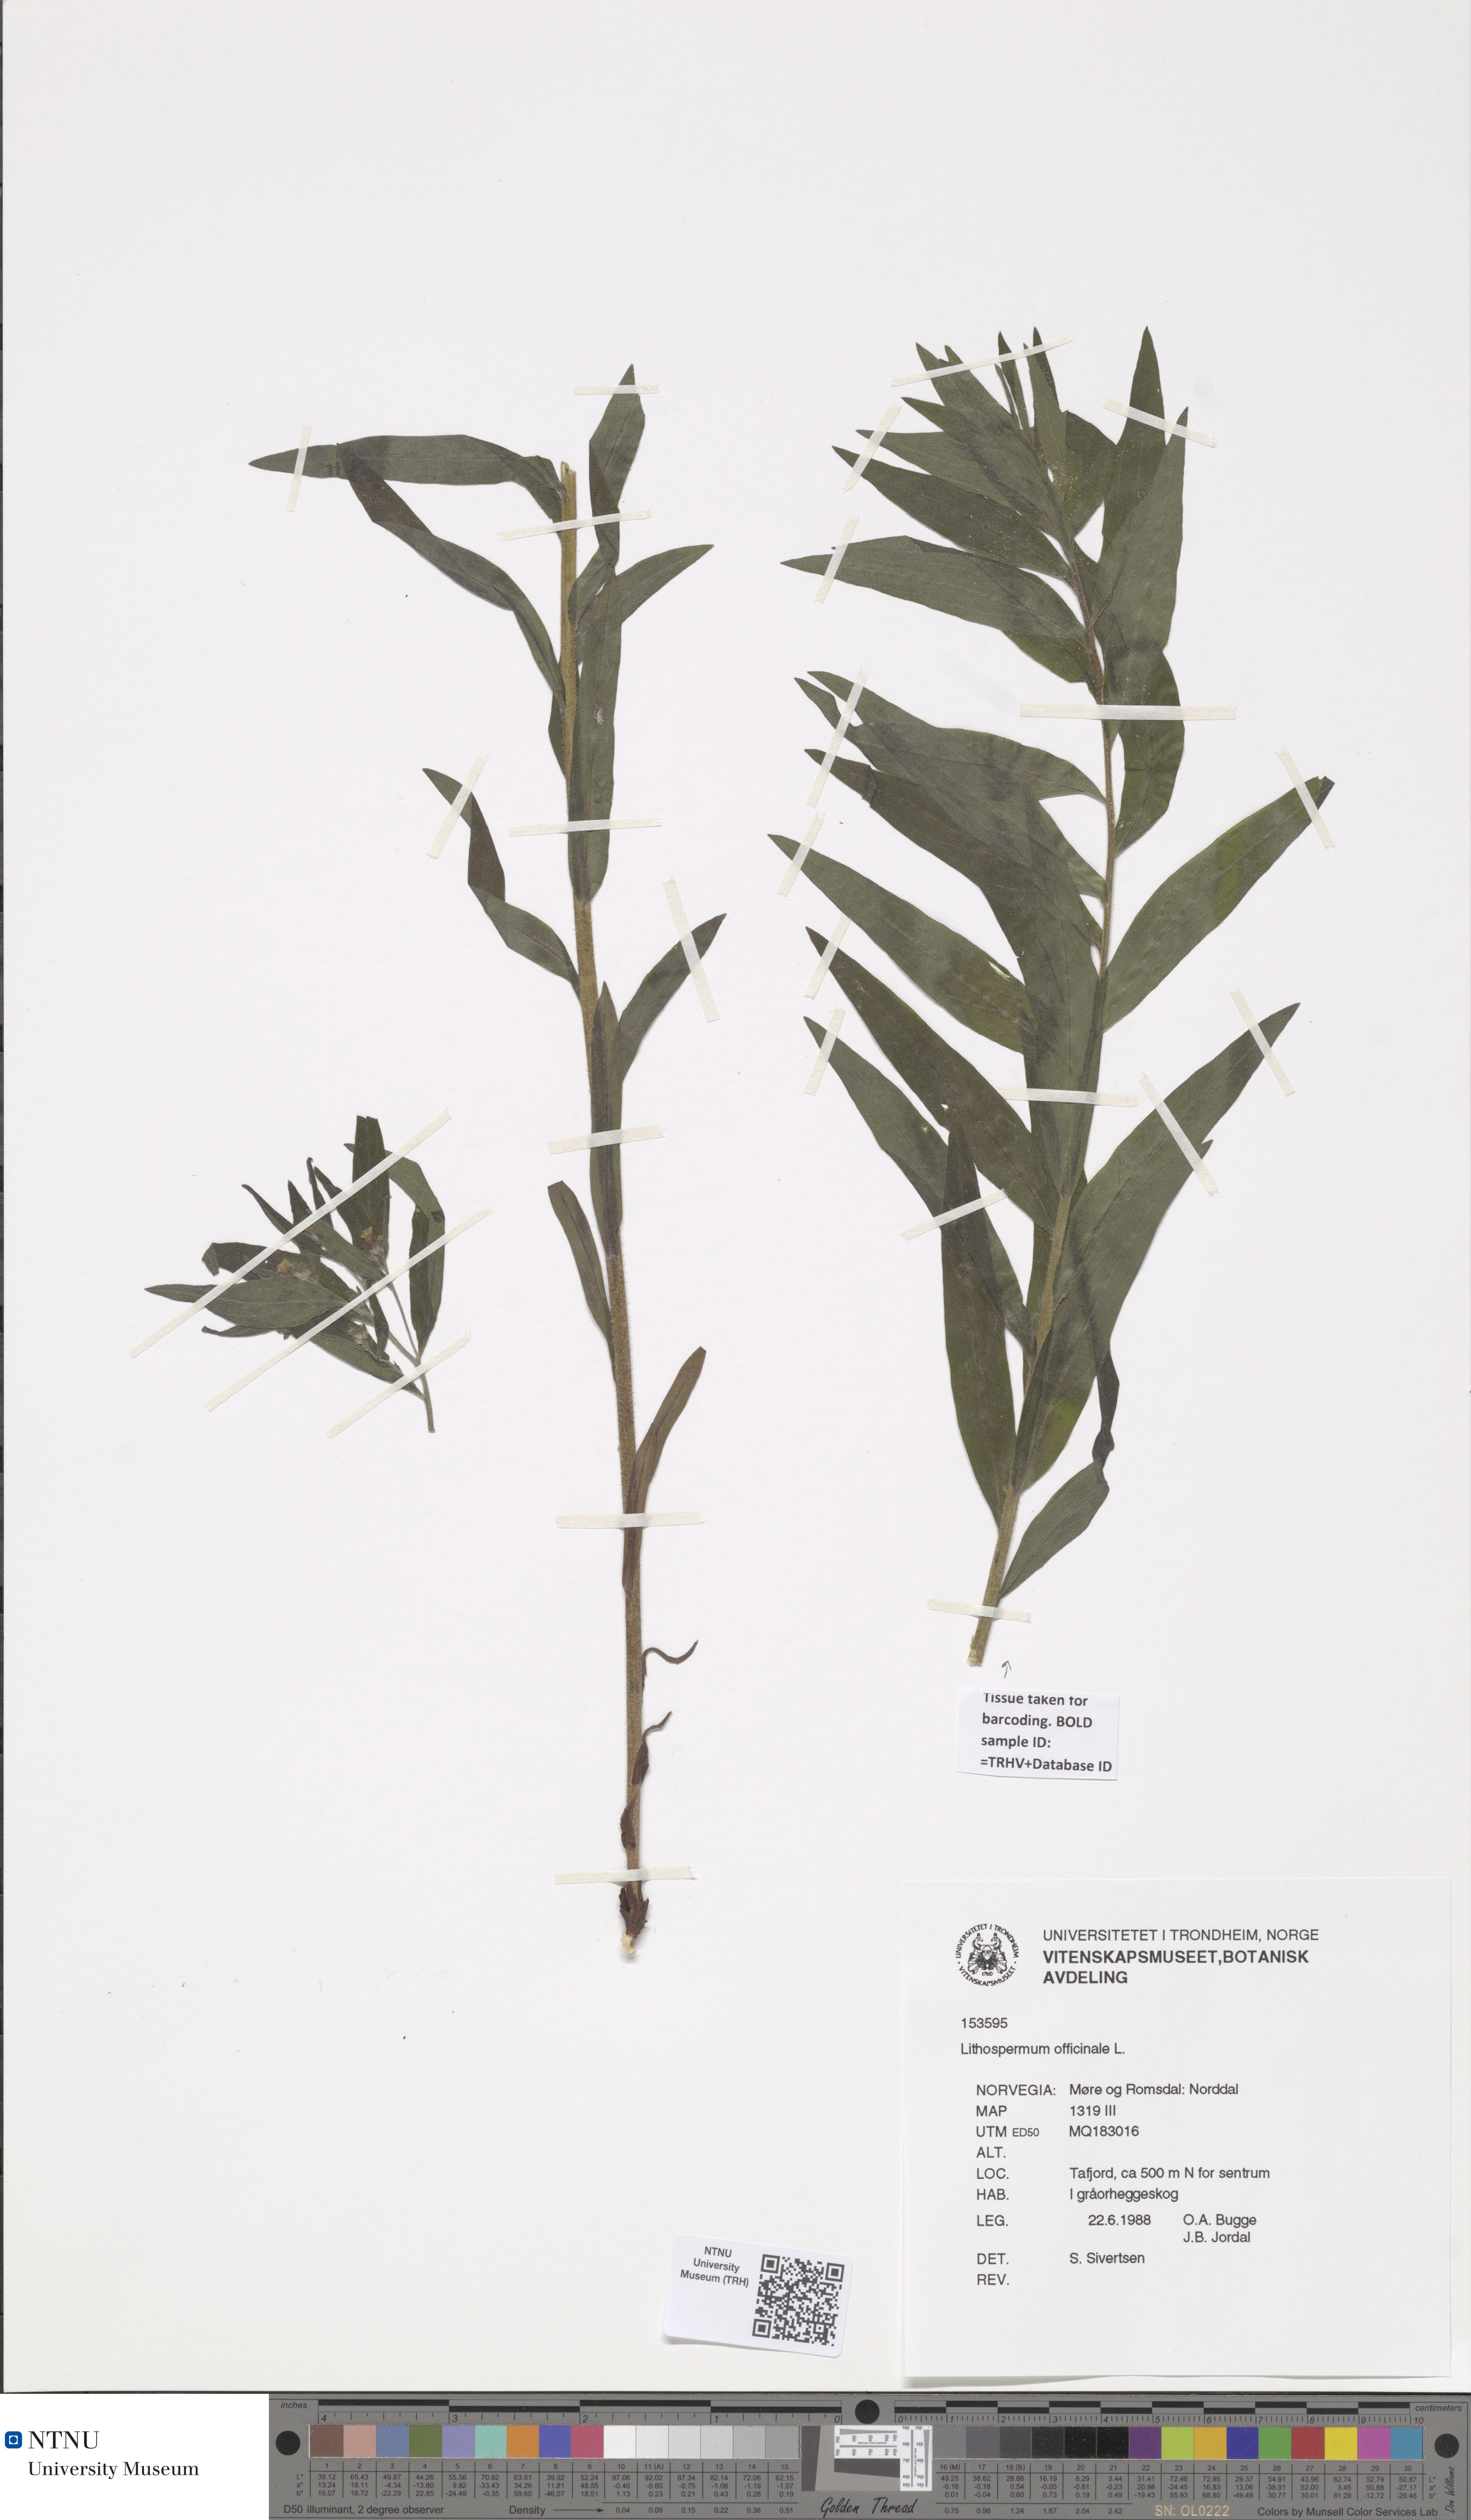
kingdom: Plantae
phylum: Tracheophyta
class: Magnoliopsida
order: Boraginales
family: Boraginaceae
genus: Lithospermum
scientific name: Lithospermum officinale
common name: Common gromwell
